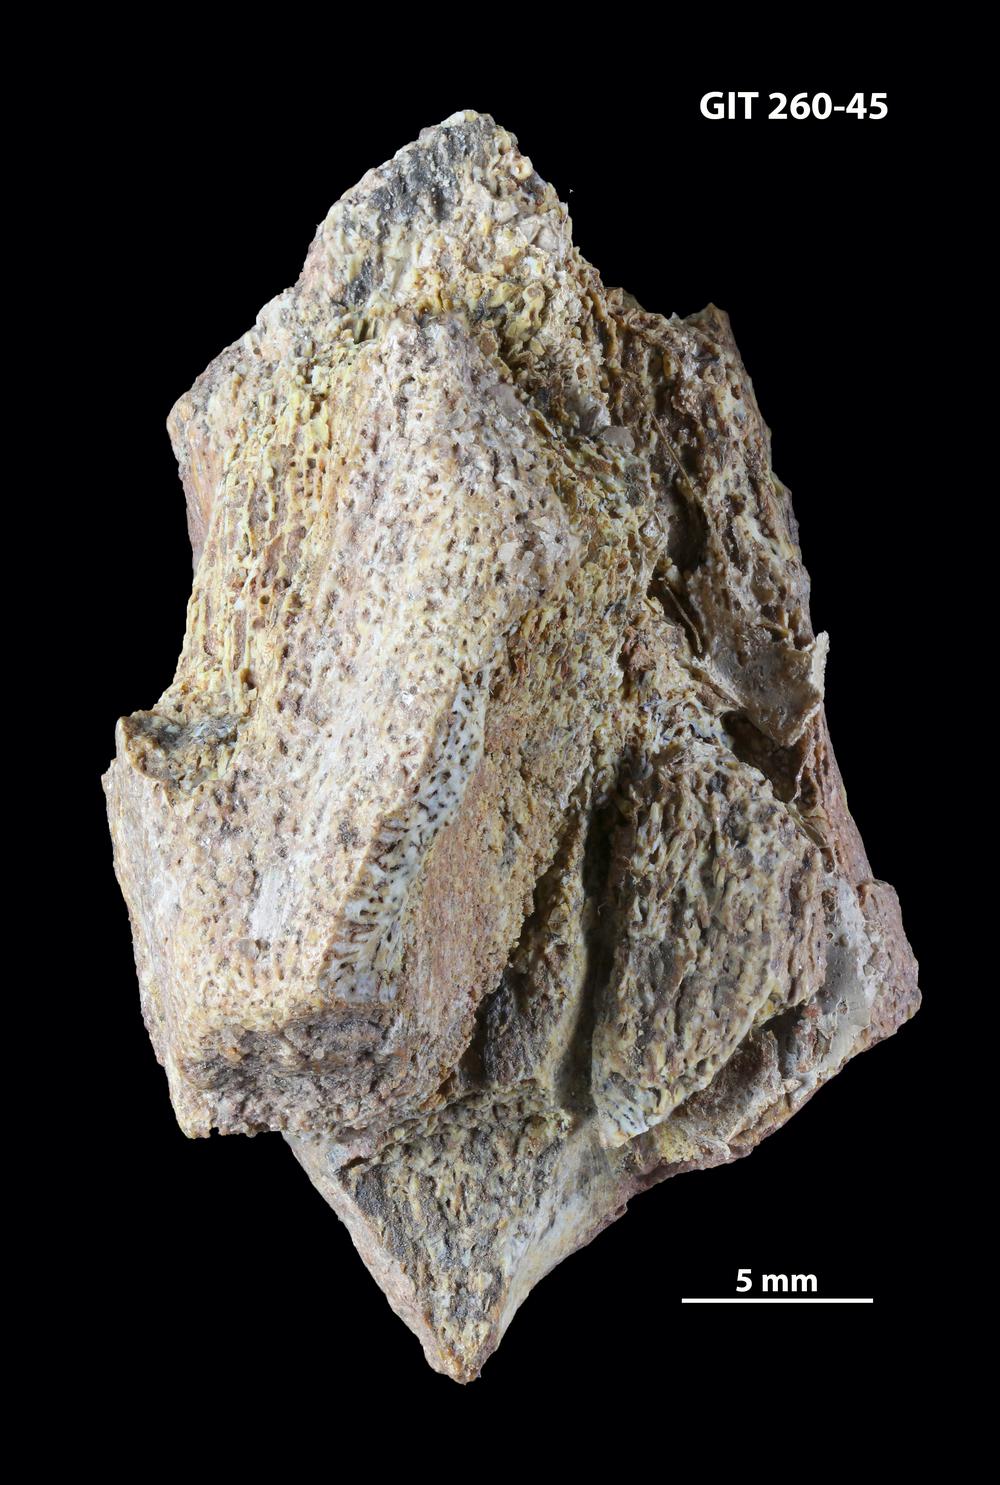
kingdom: Animalia
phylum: Chordata
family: Homostiidae
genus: Homostius
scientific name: Homostius
